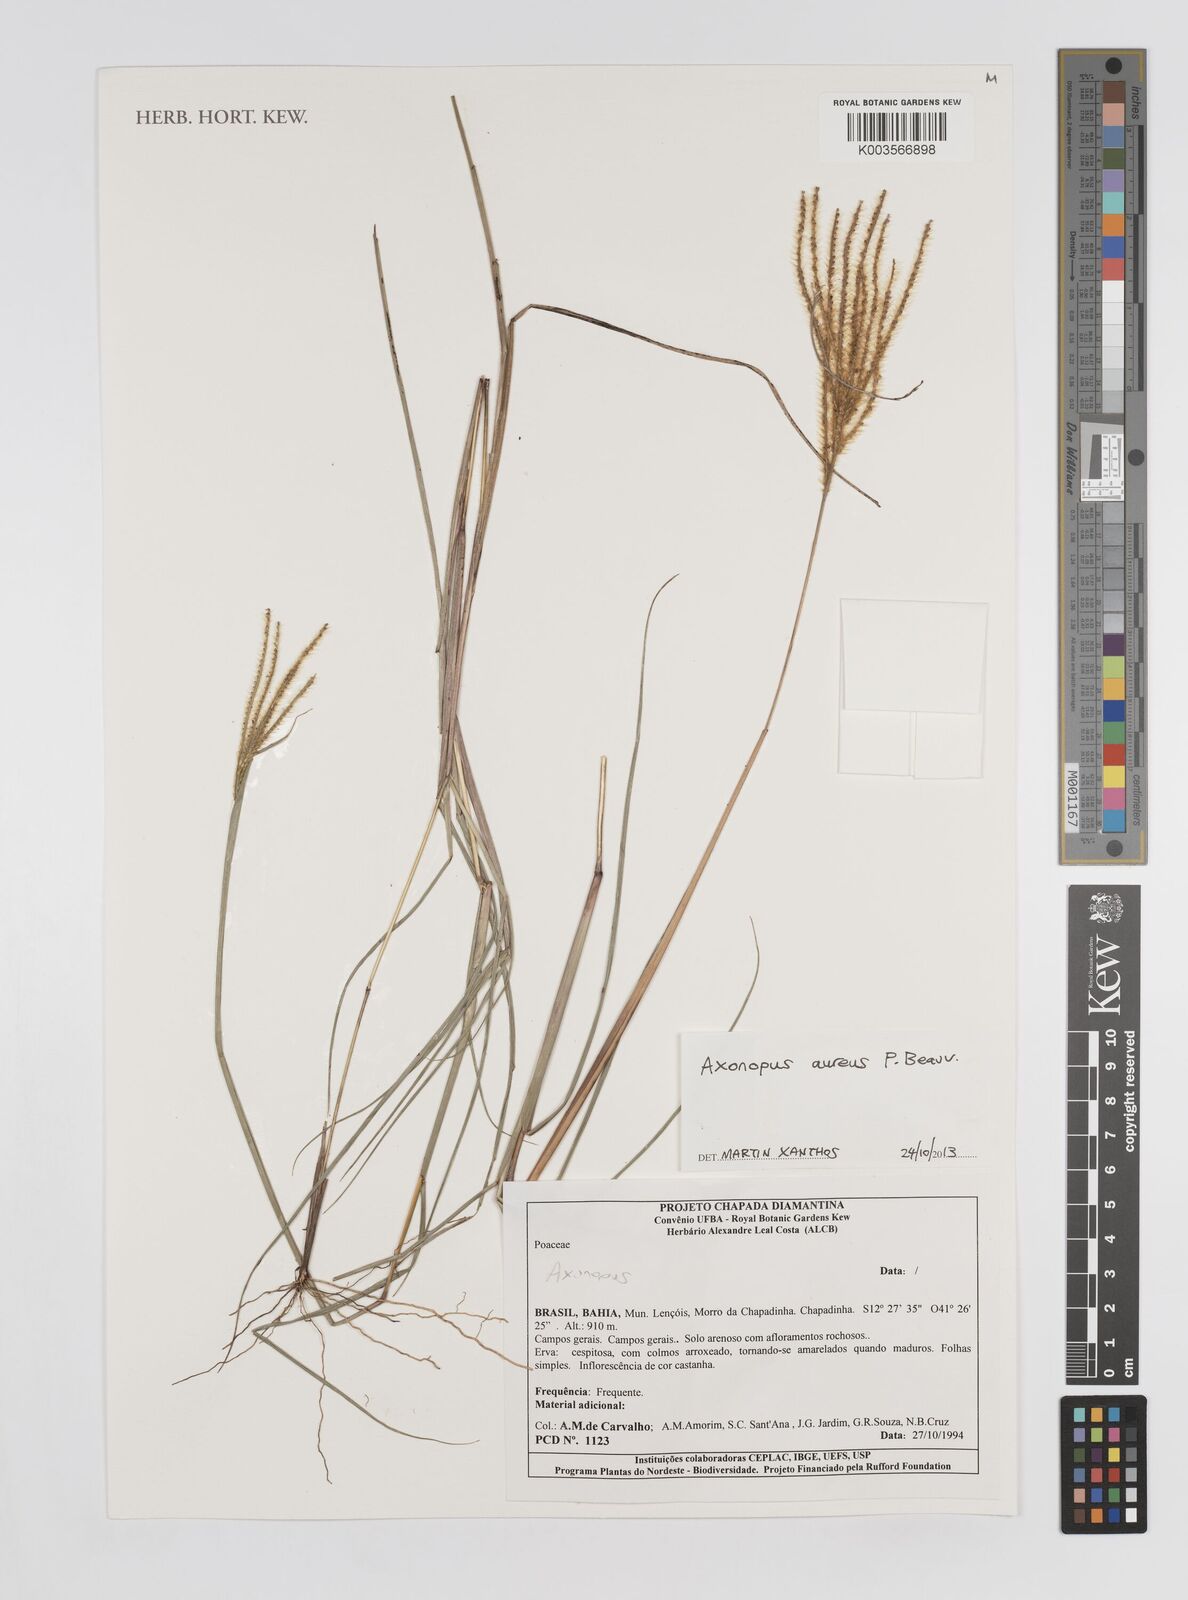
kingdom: Plantae
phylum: Tracheophyta
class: Liliopsida
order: Poales
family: Poaceae
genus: Axonopus
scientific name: Axonopus aureus
